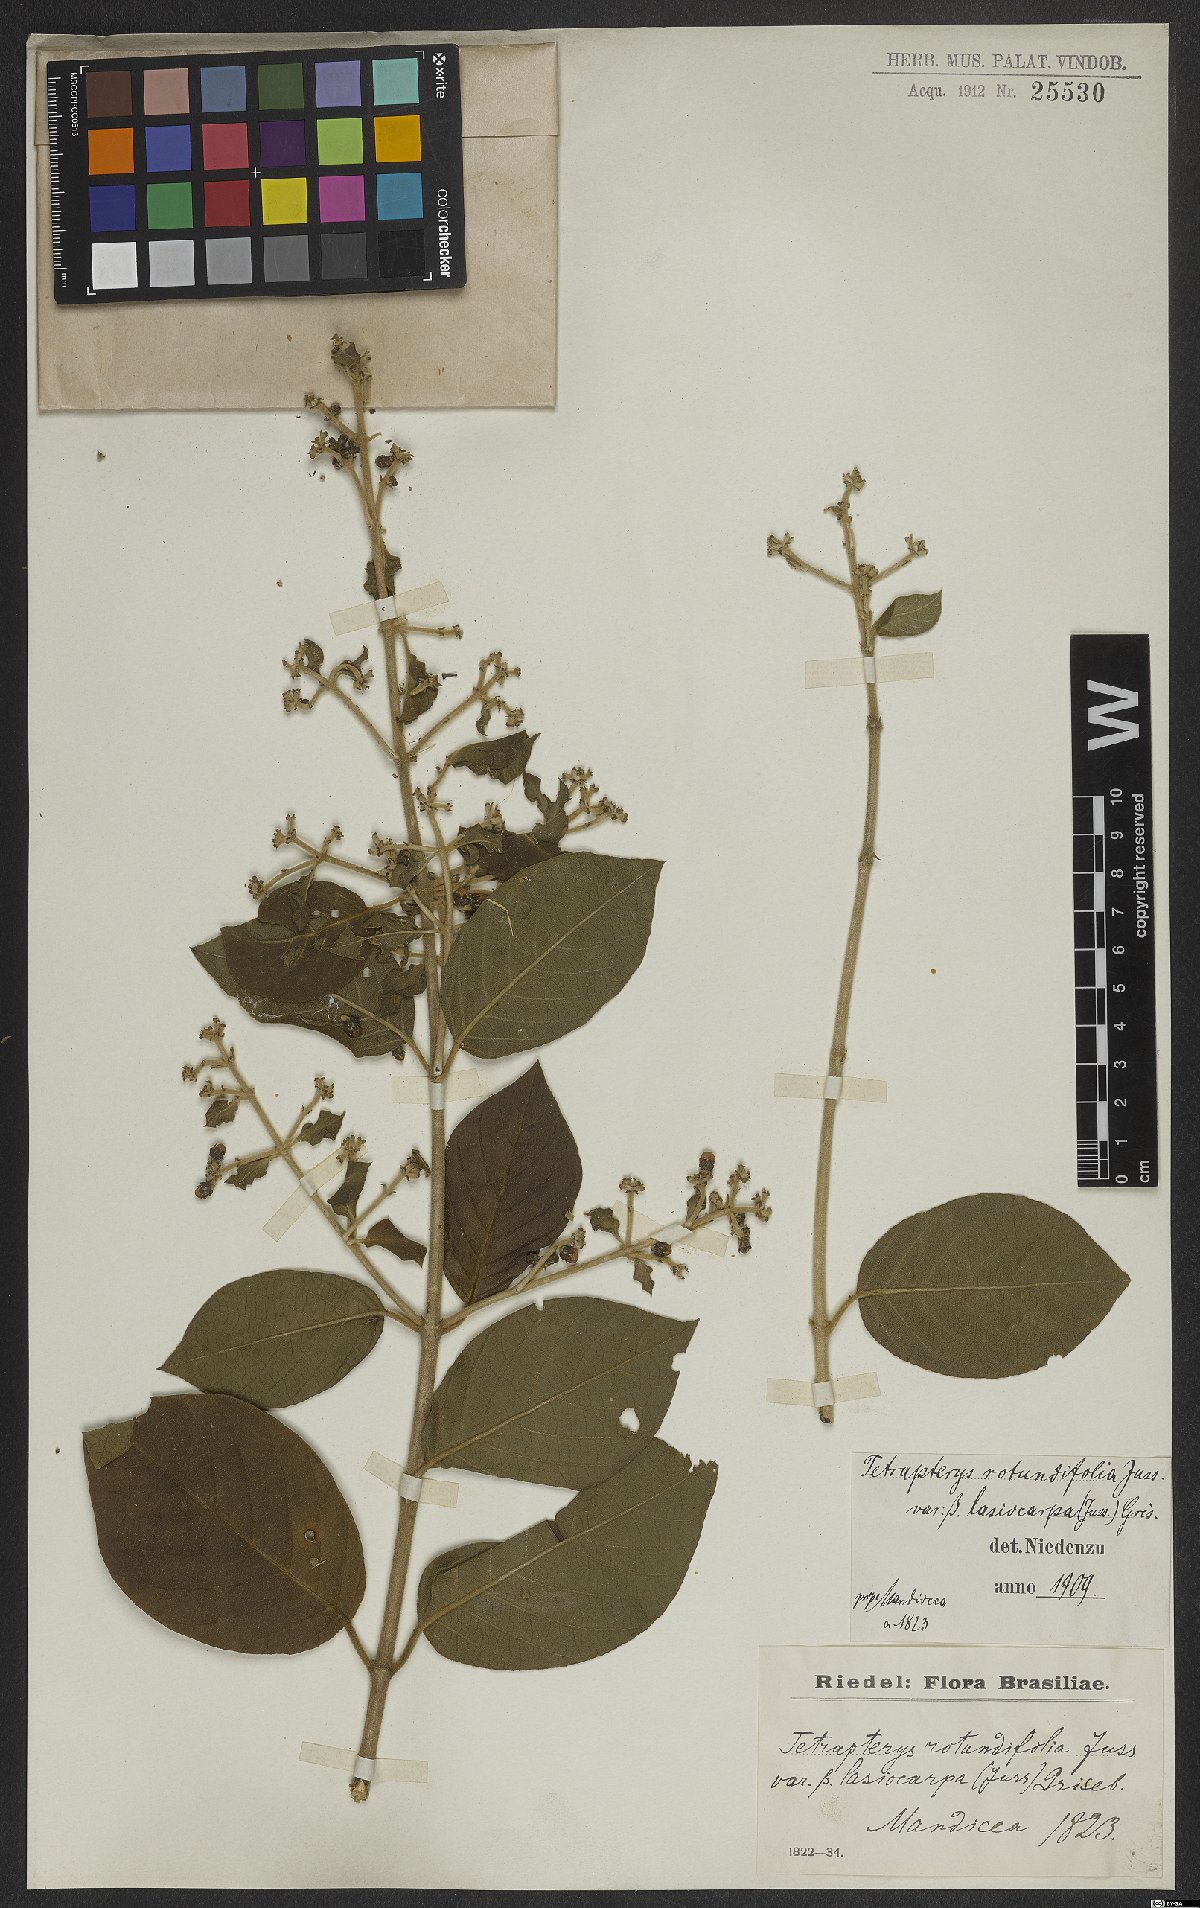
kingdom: Plantae
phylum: Tracheophyta
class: Magnoliopsida
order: Malpighiales
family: Malpighiaceae
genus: Tetrapterys
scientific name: Tetrapterys phlomoides
